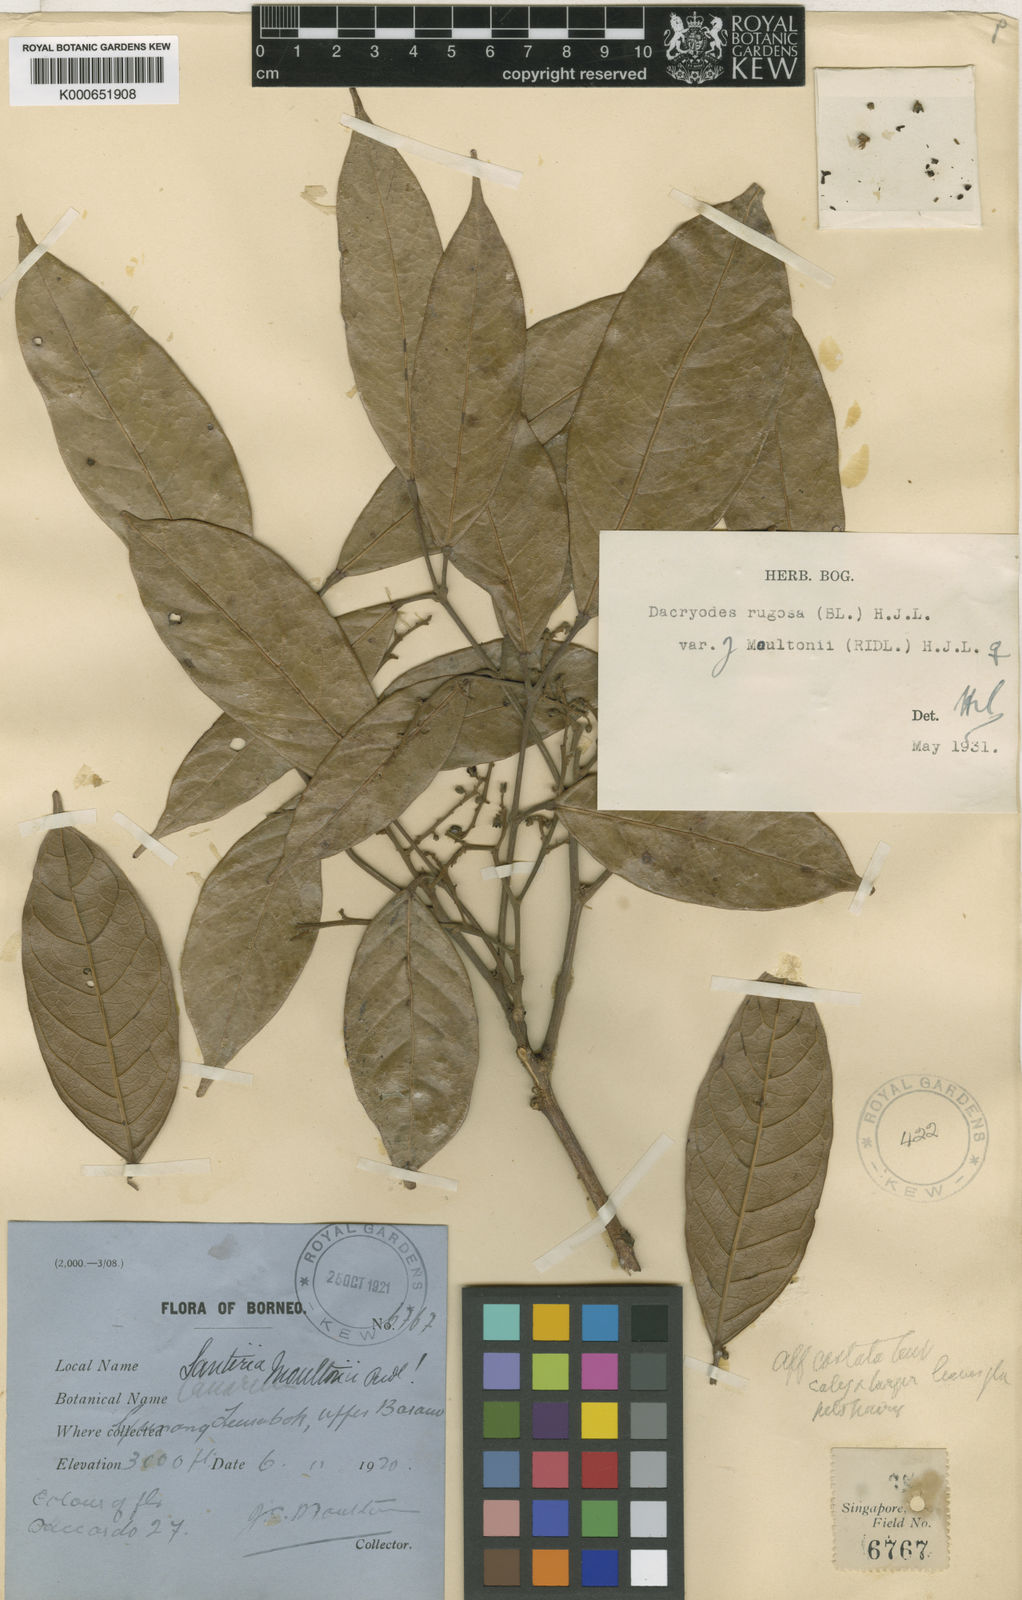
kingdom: Plantae
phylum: Tracheophyta
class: Magnoliopsida
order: Sapindales
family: Burseraceae
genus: Dacryodes
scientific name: Dacryodes rugosa
